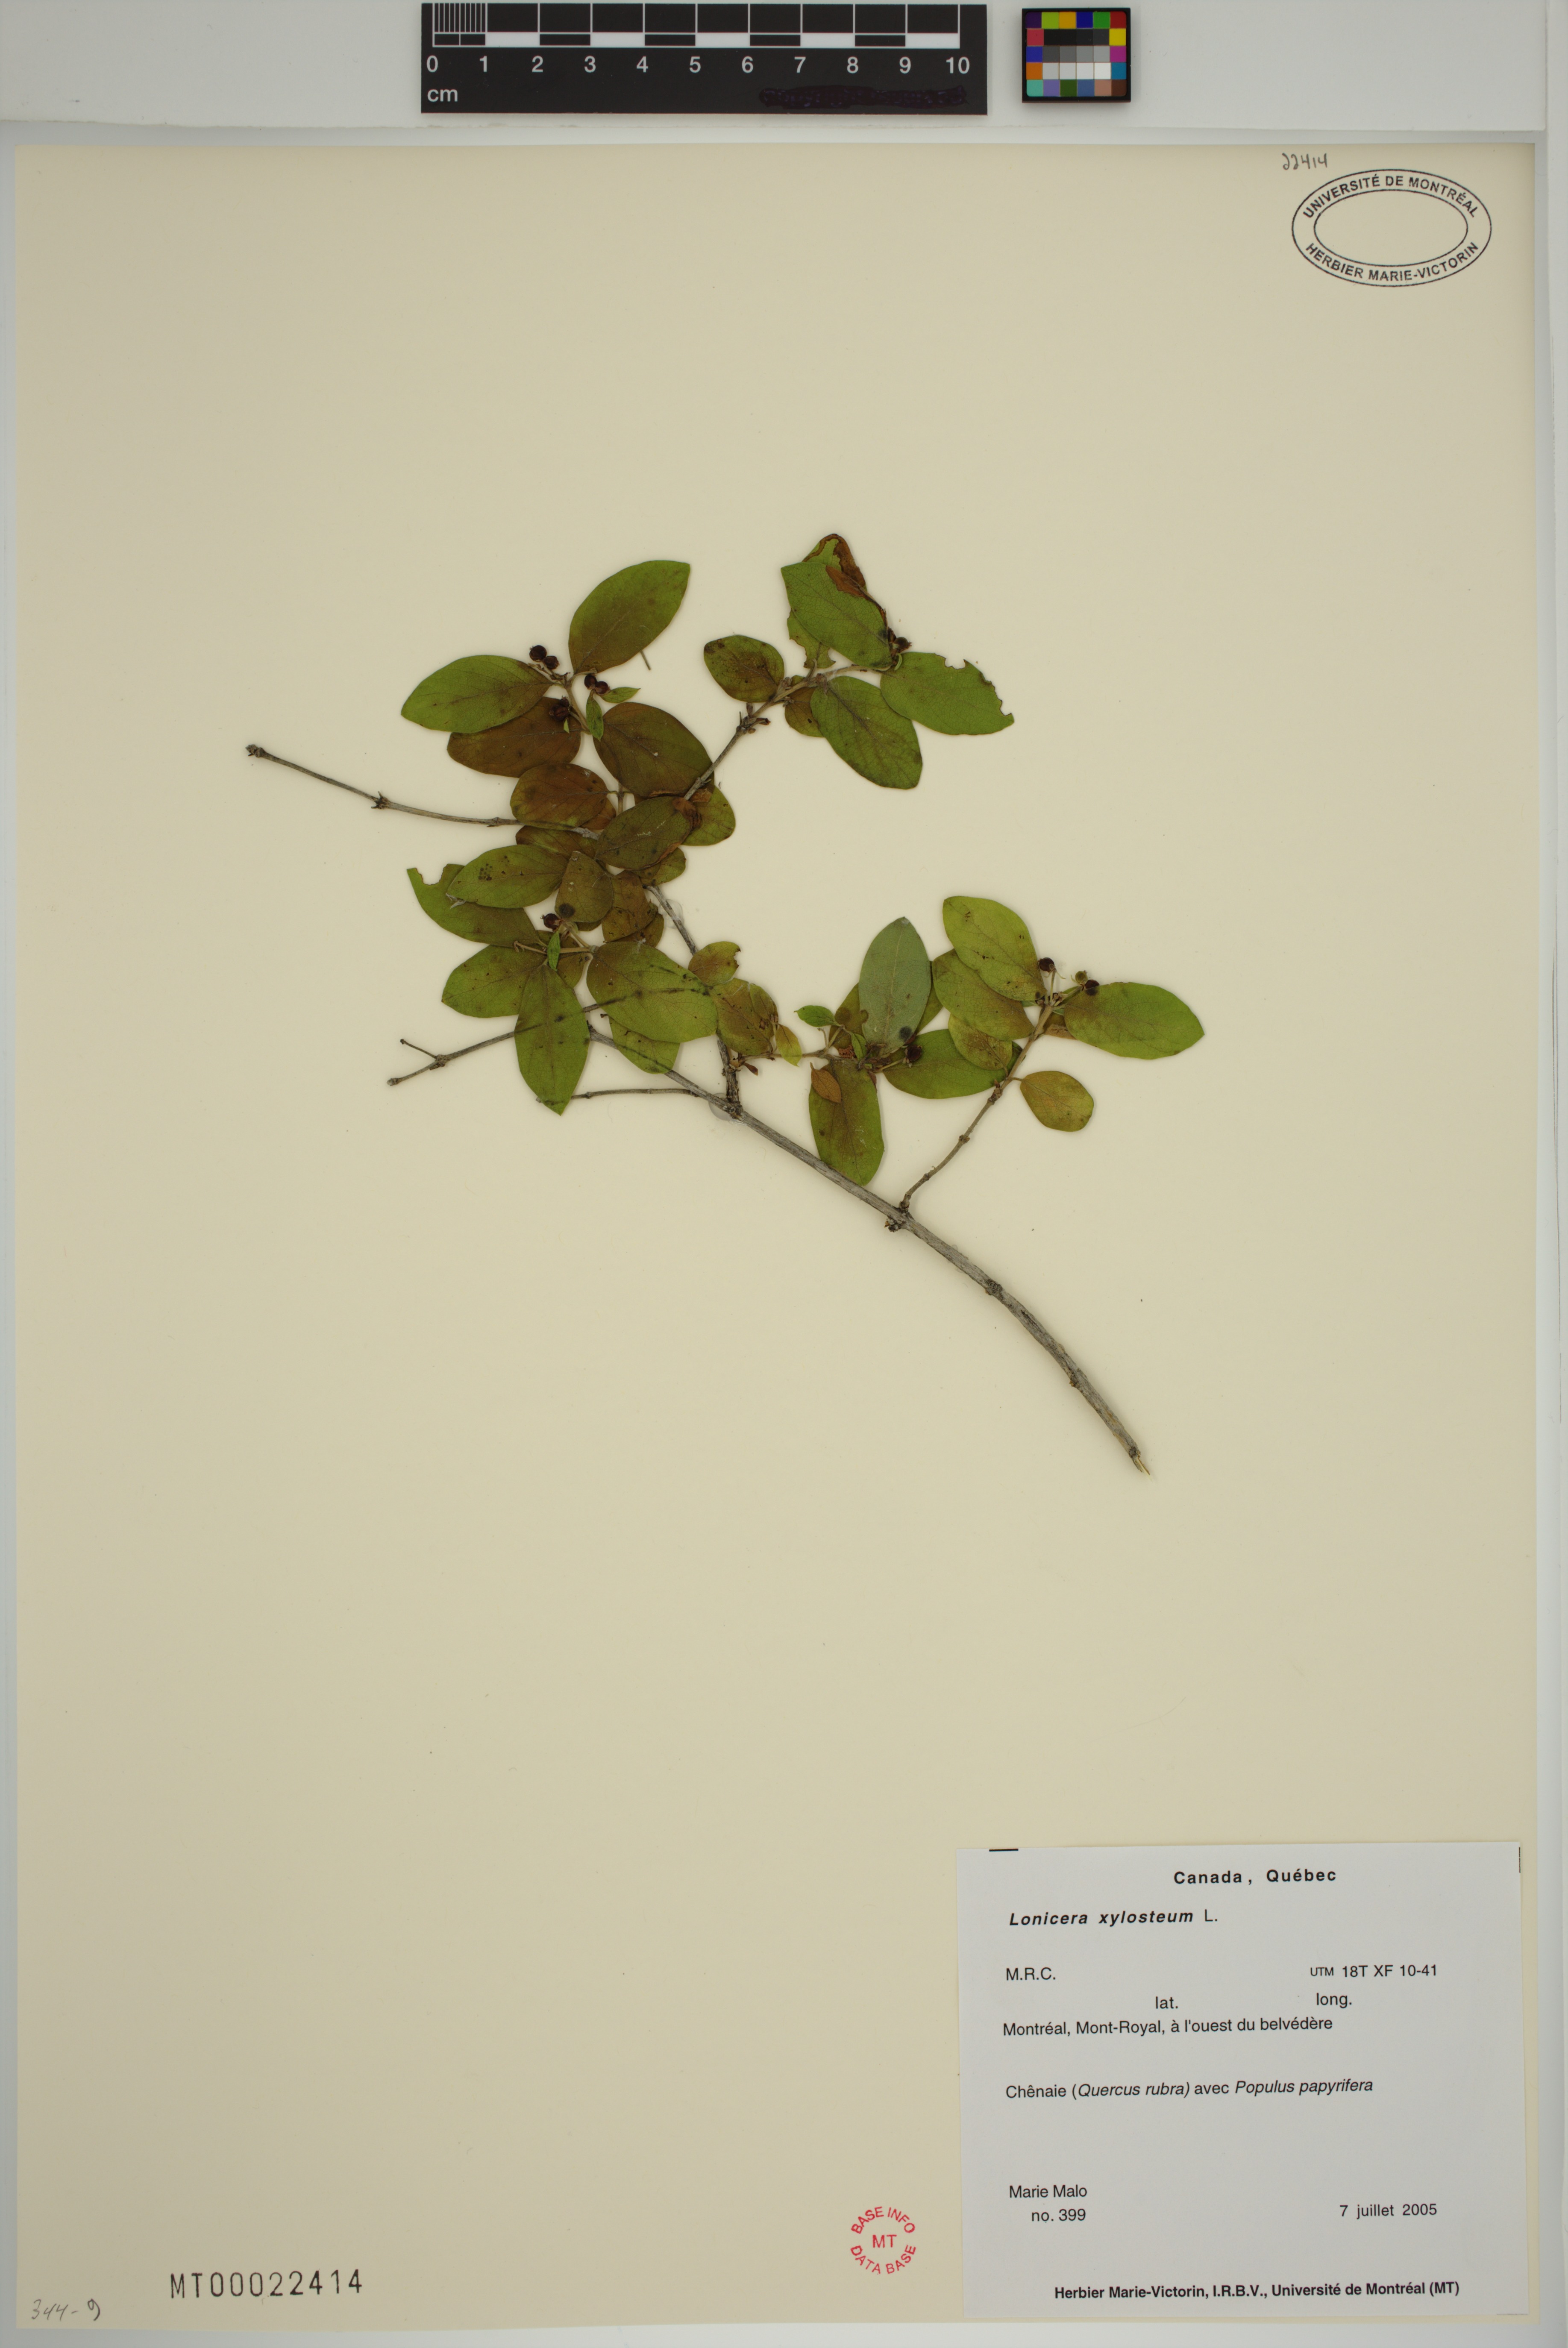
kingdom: Plantae
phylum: Tracheophyta
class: Magnoliopsida
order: Dipsacales
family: Caprifoliaceae
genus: Lonicera
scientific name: Lonicera tatarica
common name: Tatarian honeysuckle
